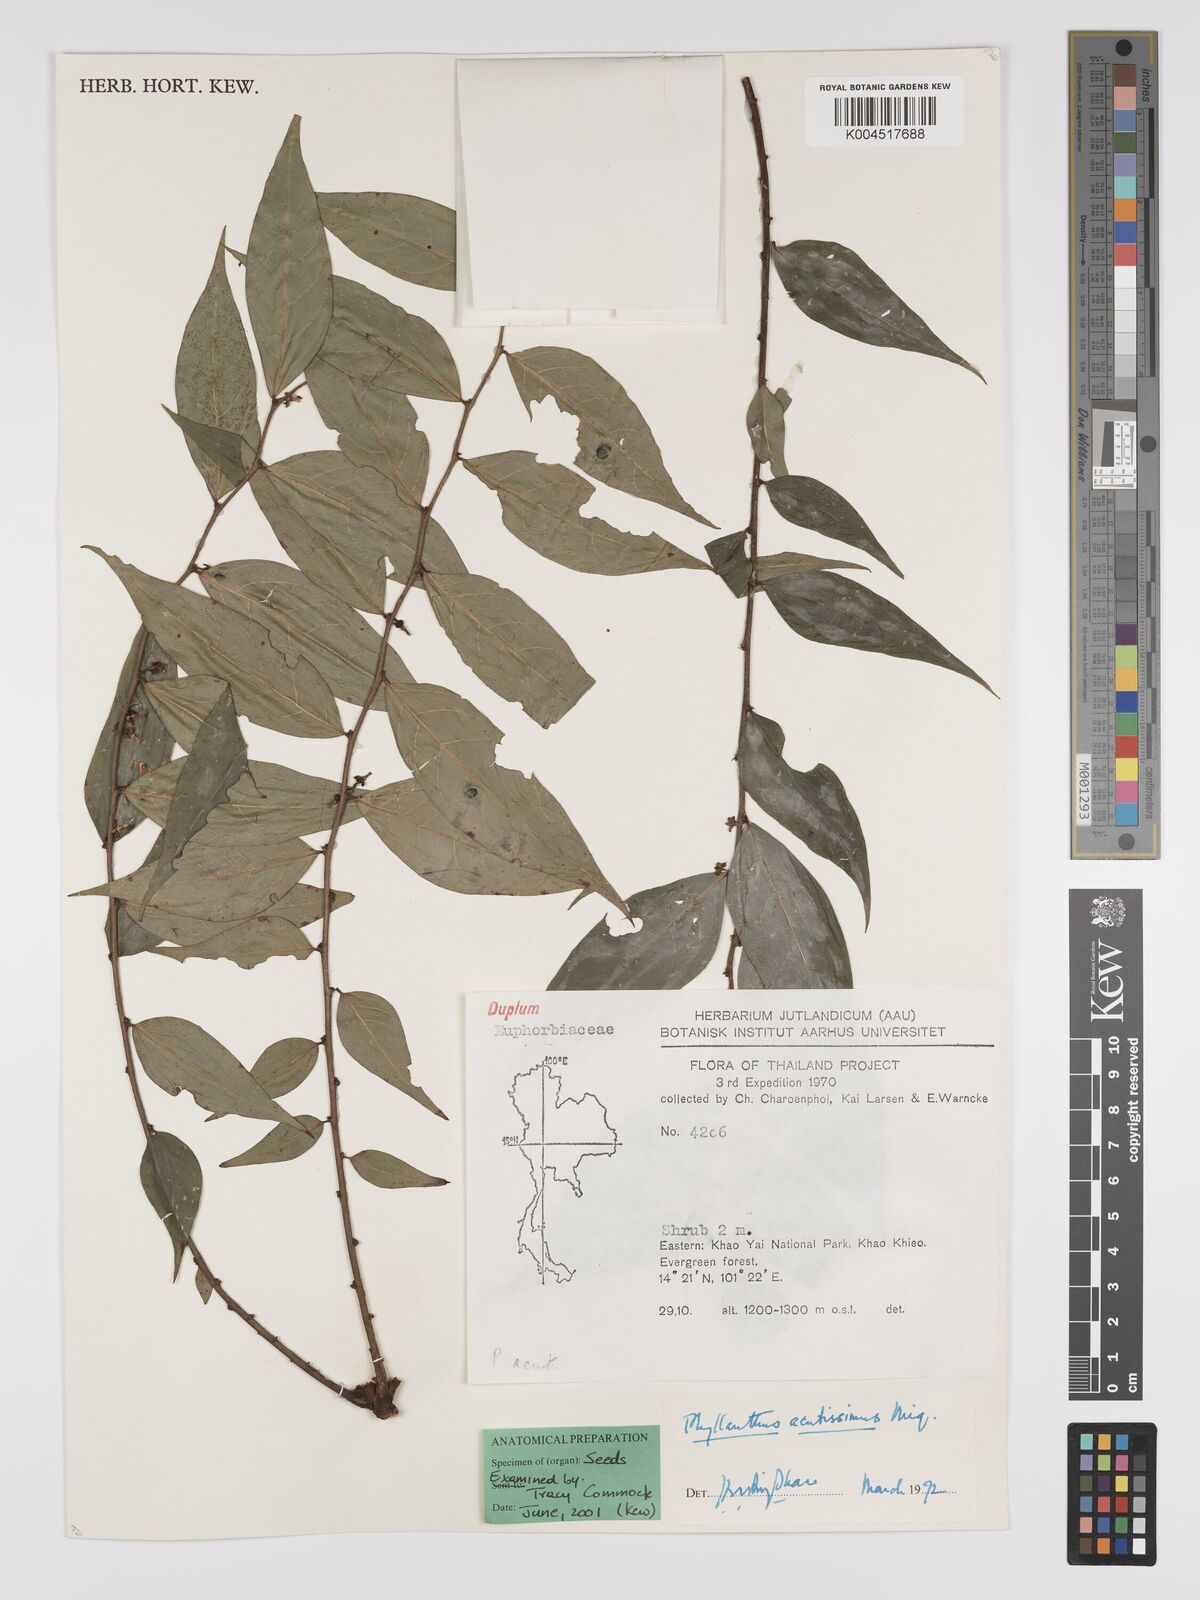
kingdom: Plantae
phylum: Tracheophyta
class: Magnoliopsida
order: Malpighiales
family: Phyllanthaceae
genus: Phyllanthus
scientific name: Phyllanthus acutissimus
